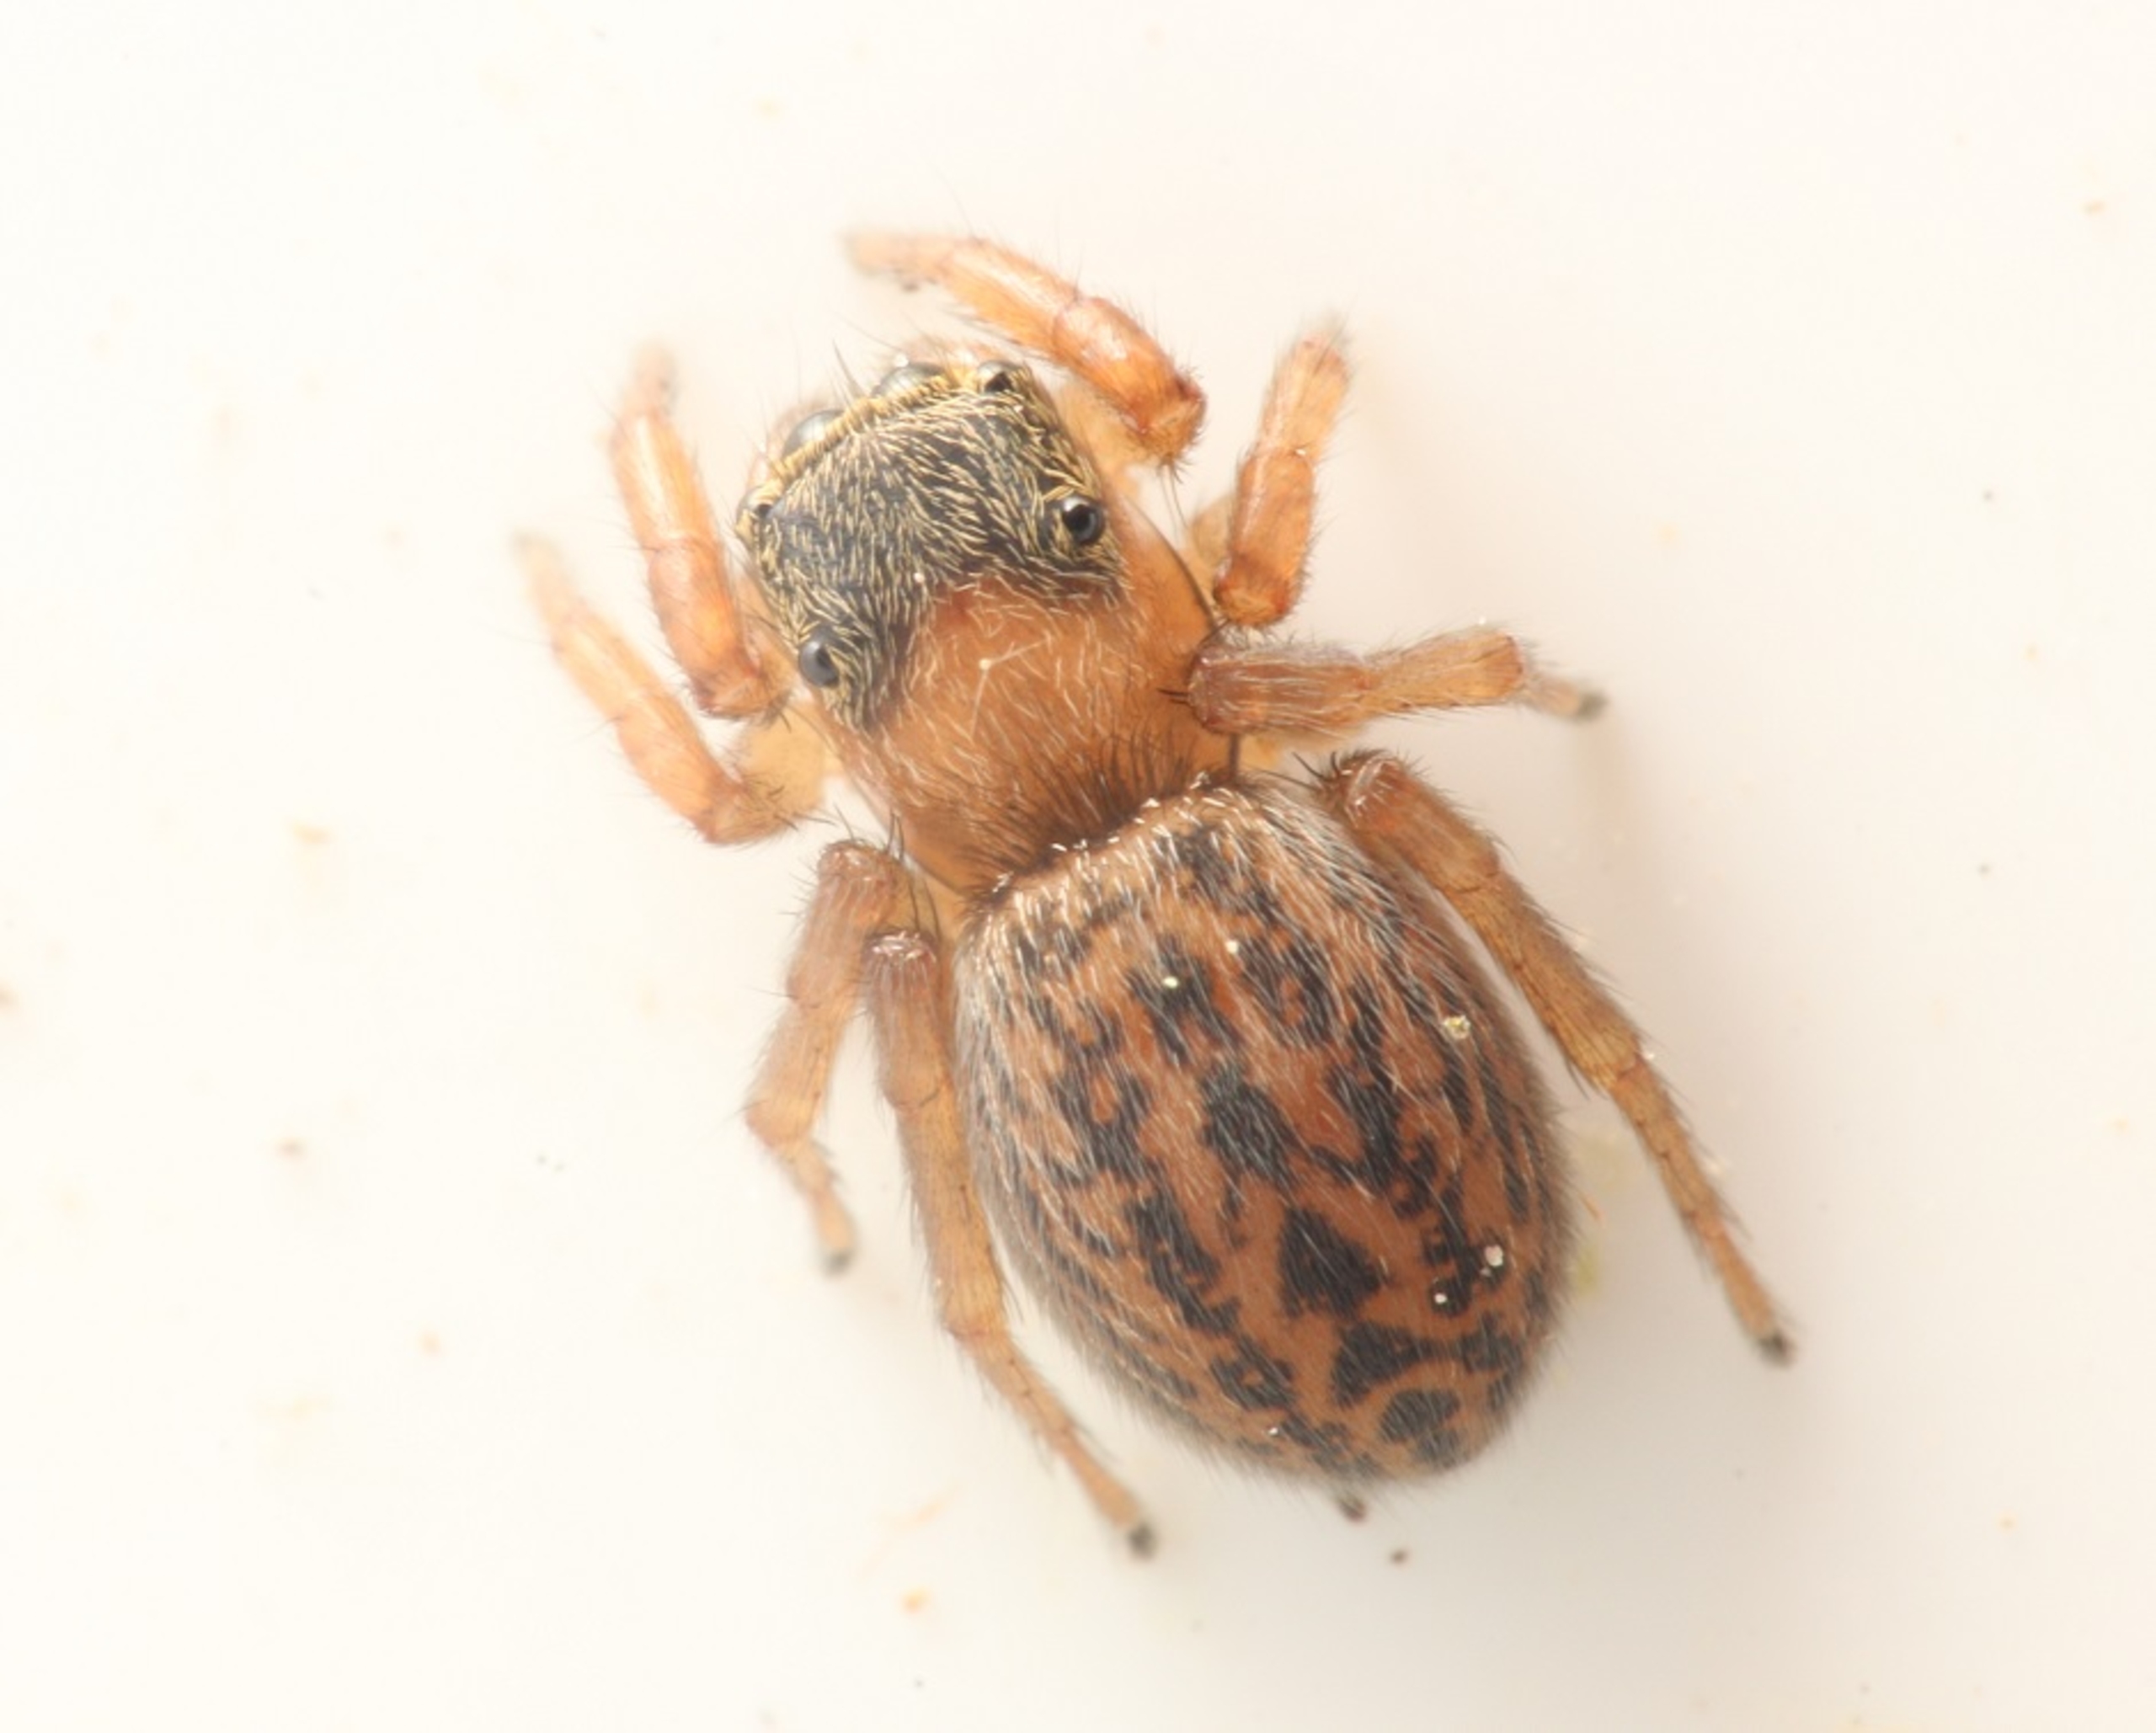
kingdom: Animalia
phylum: Arthropoda
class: Arachnida
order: Araneae
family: Salticidae
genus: Euophrys
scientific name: Euophrys frontalis
